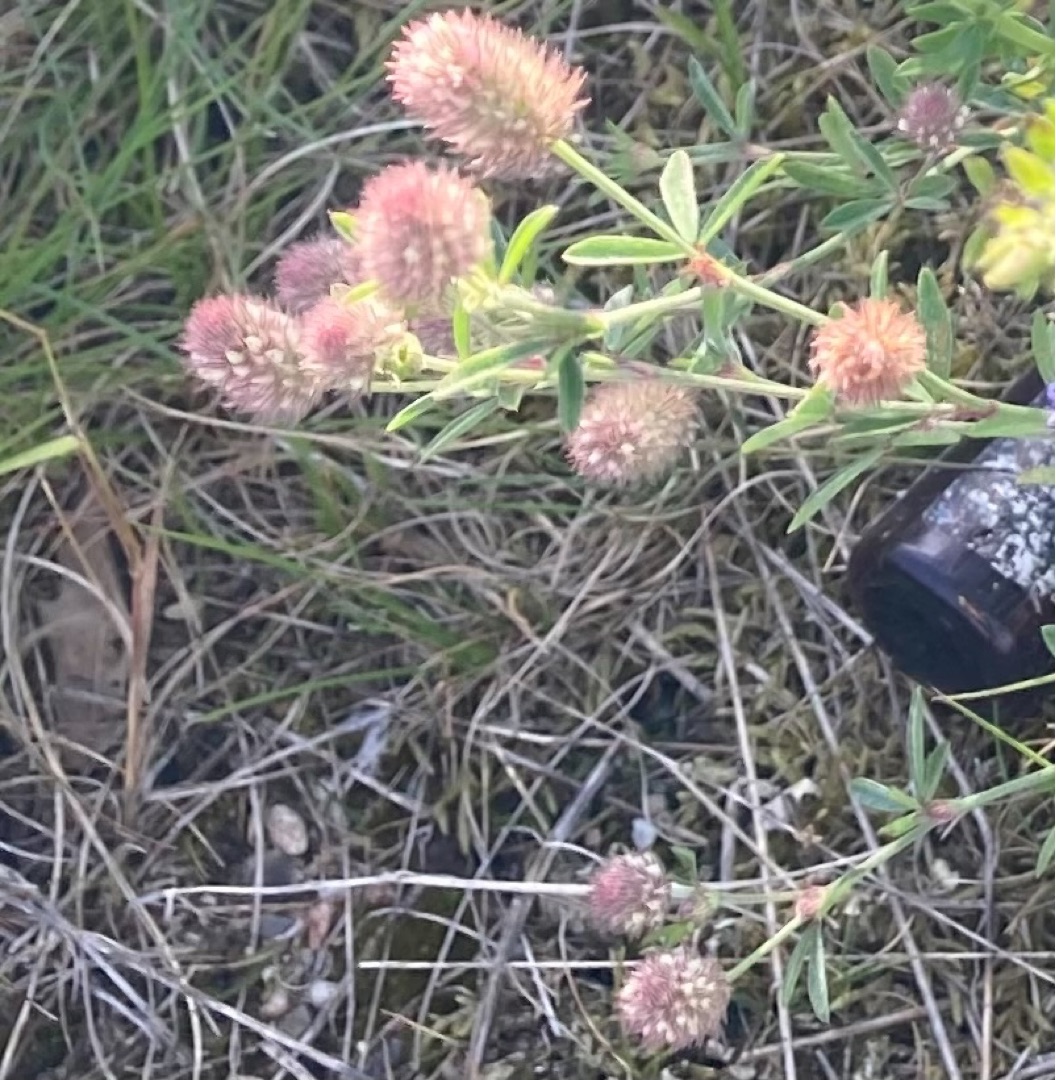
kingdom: Plantae
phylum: Tracheophyta
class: Magnoliopsida
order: Fabales
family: Fabaceae
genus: Trifolium
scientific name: Trifolium arvense
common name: Hare-kløver
